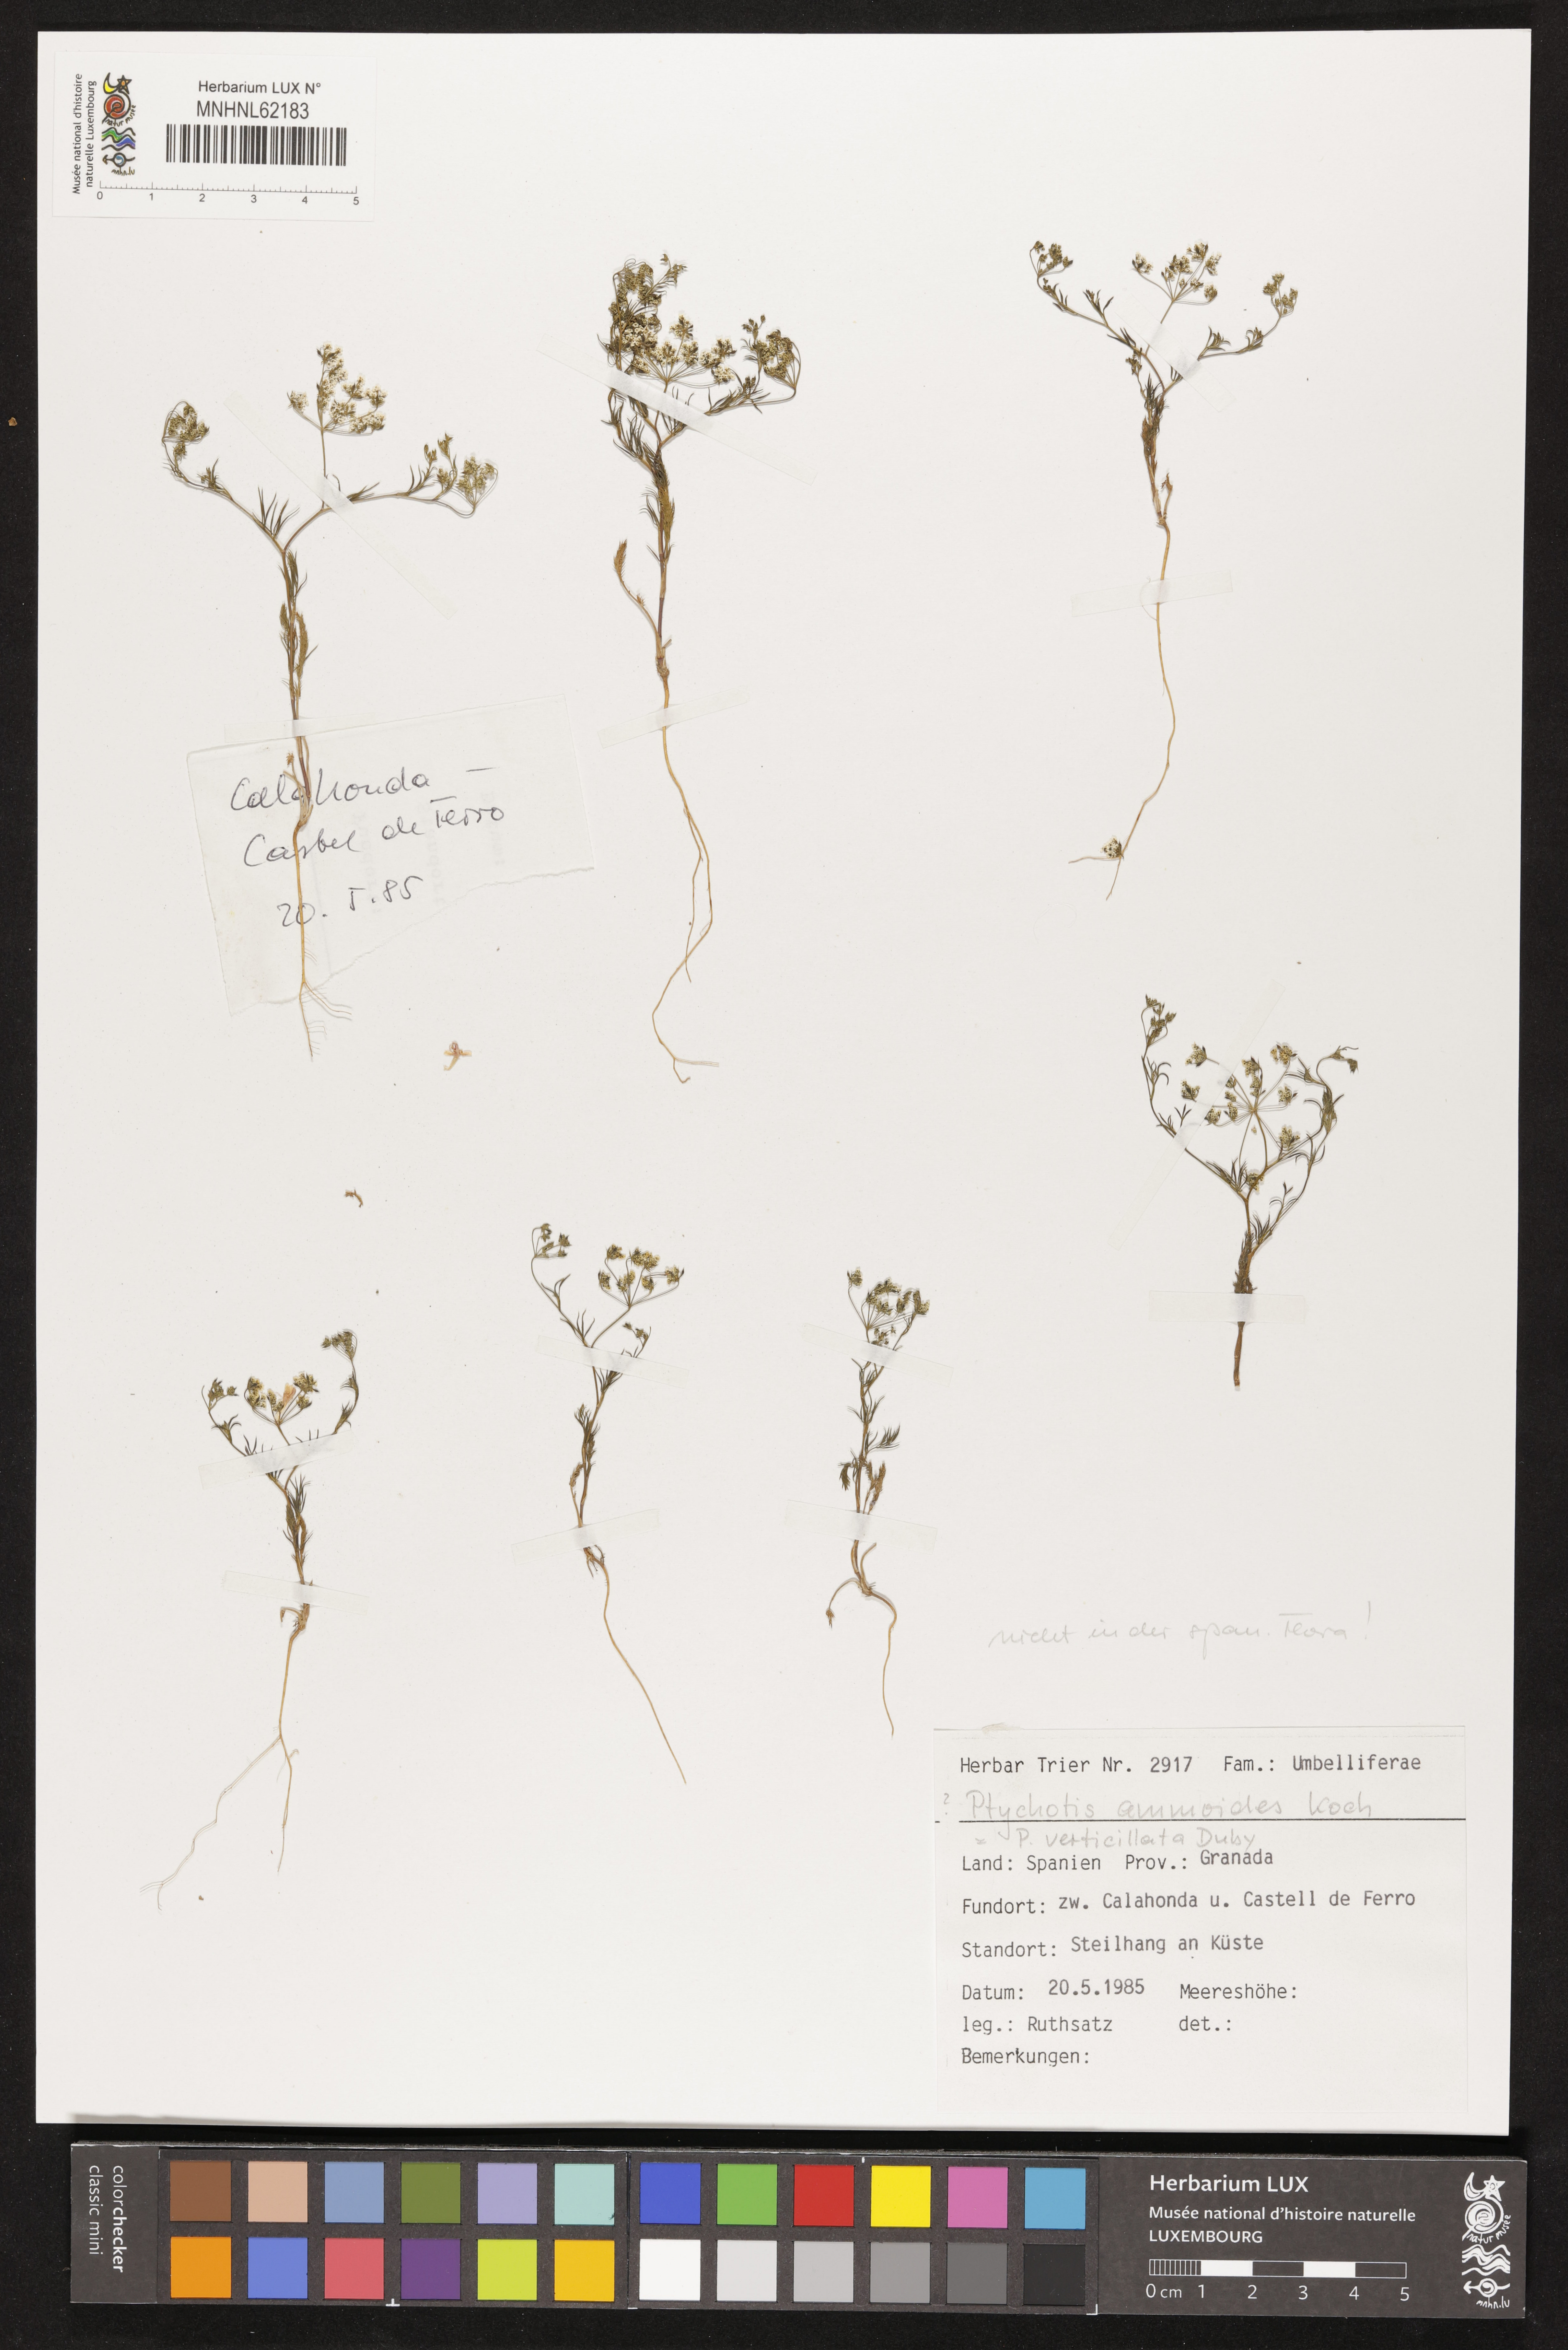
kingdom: Plantae
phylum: Tracheophyta
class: Magnoliopsida
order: Apiales
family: Apiaceae
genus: Ammoides
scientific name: Ammoides pusilla
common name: Cerfolium
